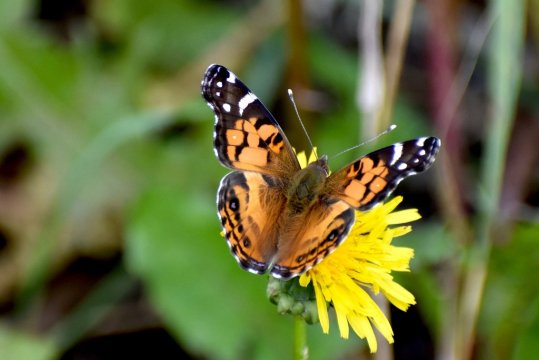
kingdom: Animalia
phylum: Arthropoda
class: Insecta
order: Lepidoptera
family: Nymphalidae
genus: Vanessa
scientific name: Vanessa virginiensis
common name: American Lady
